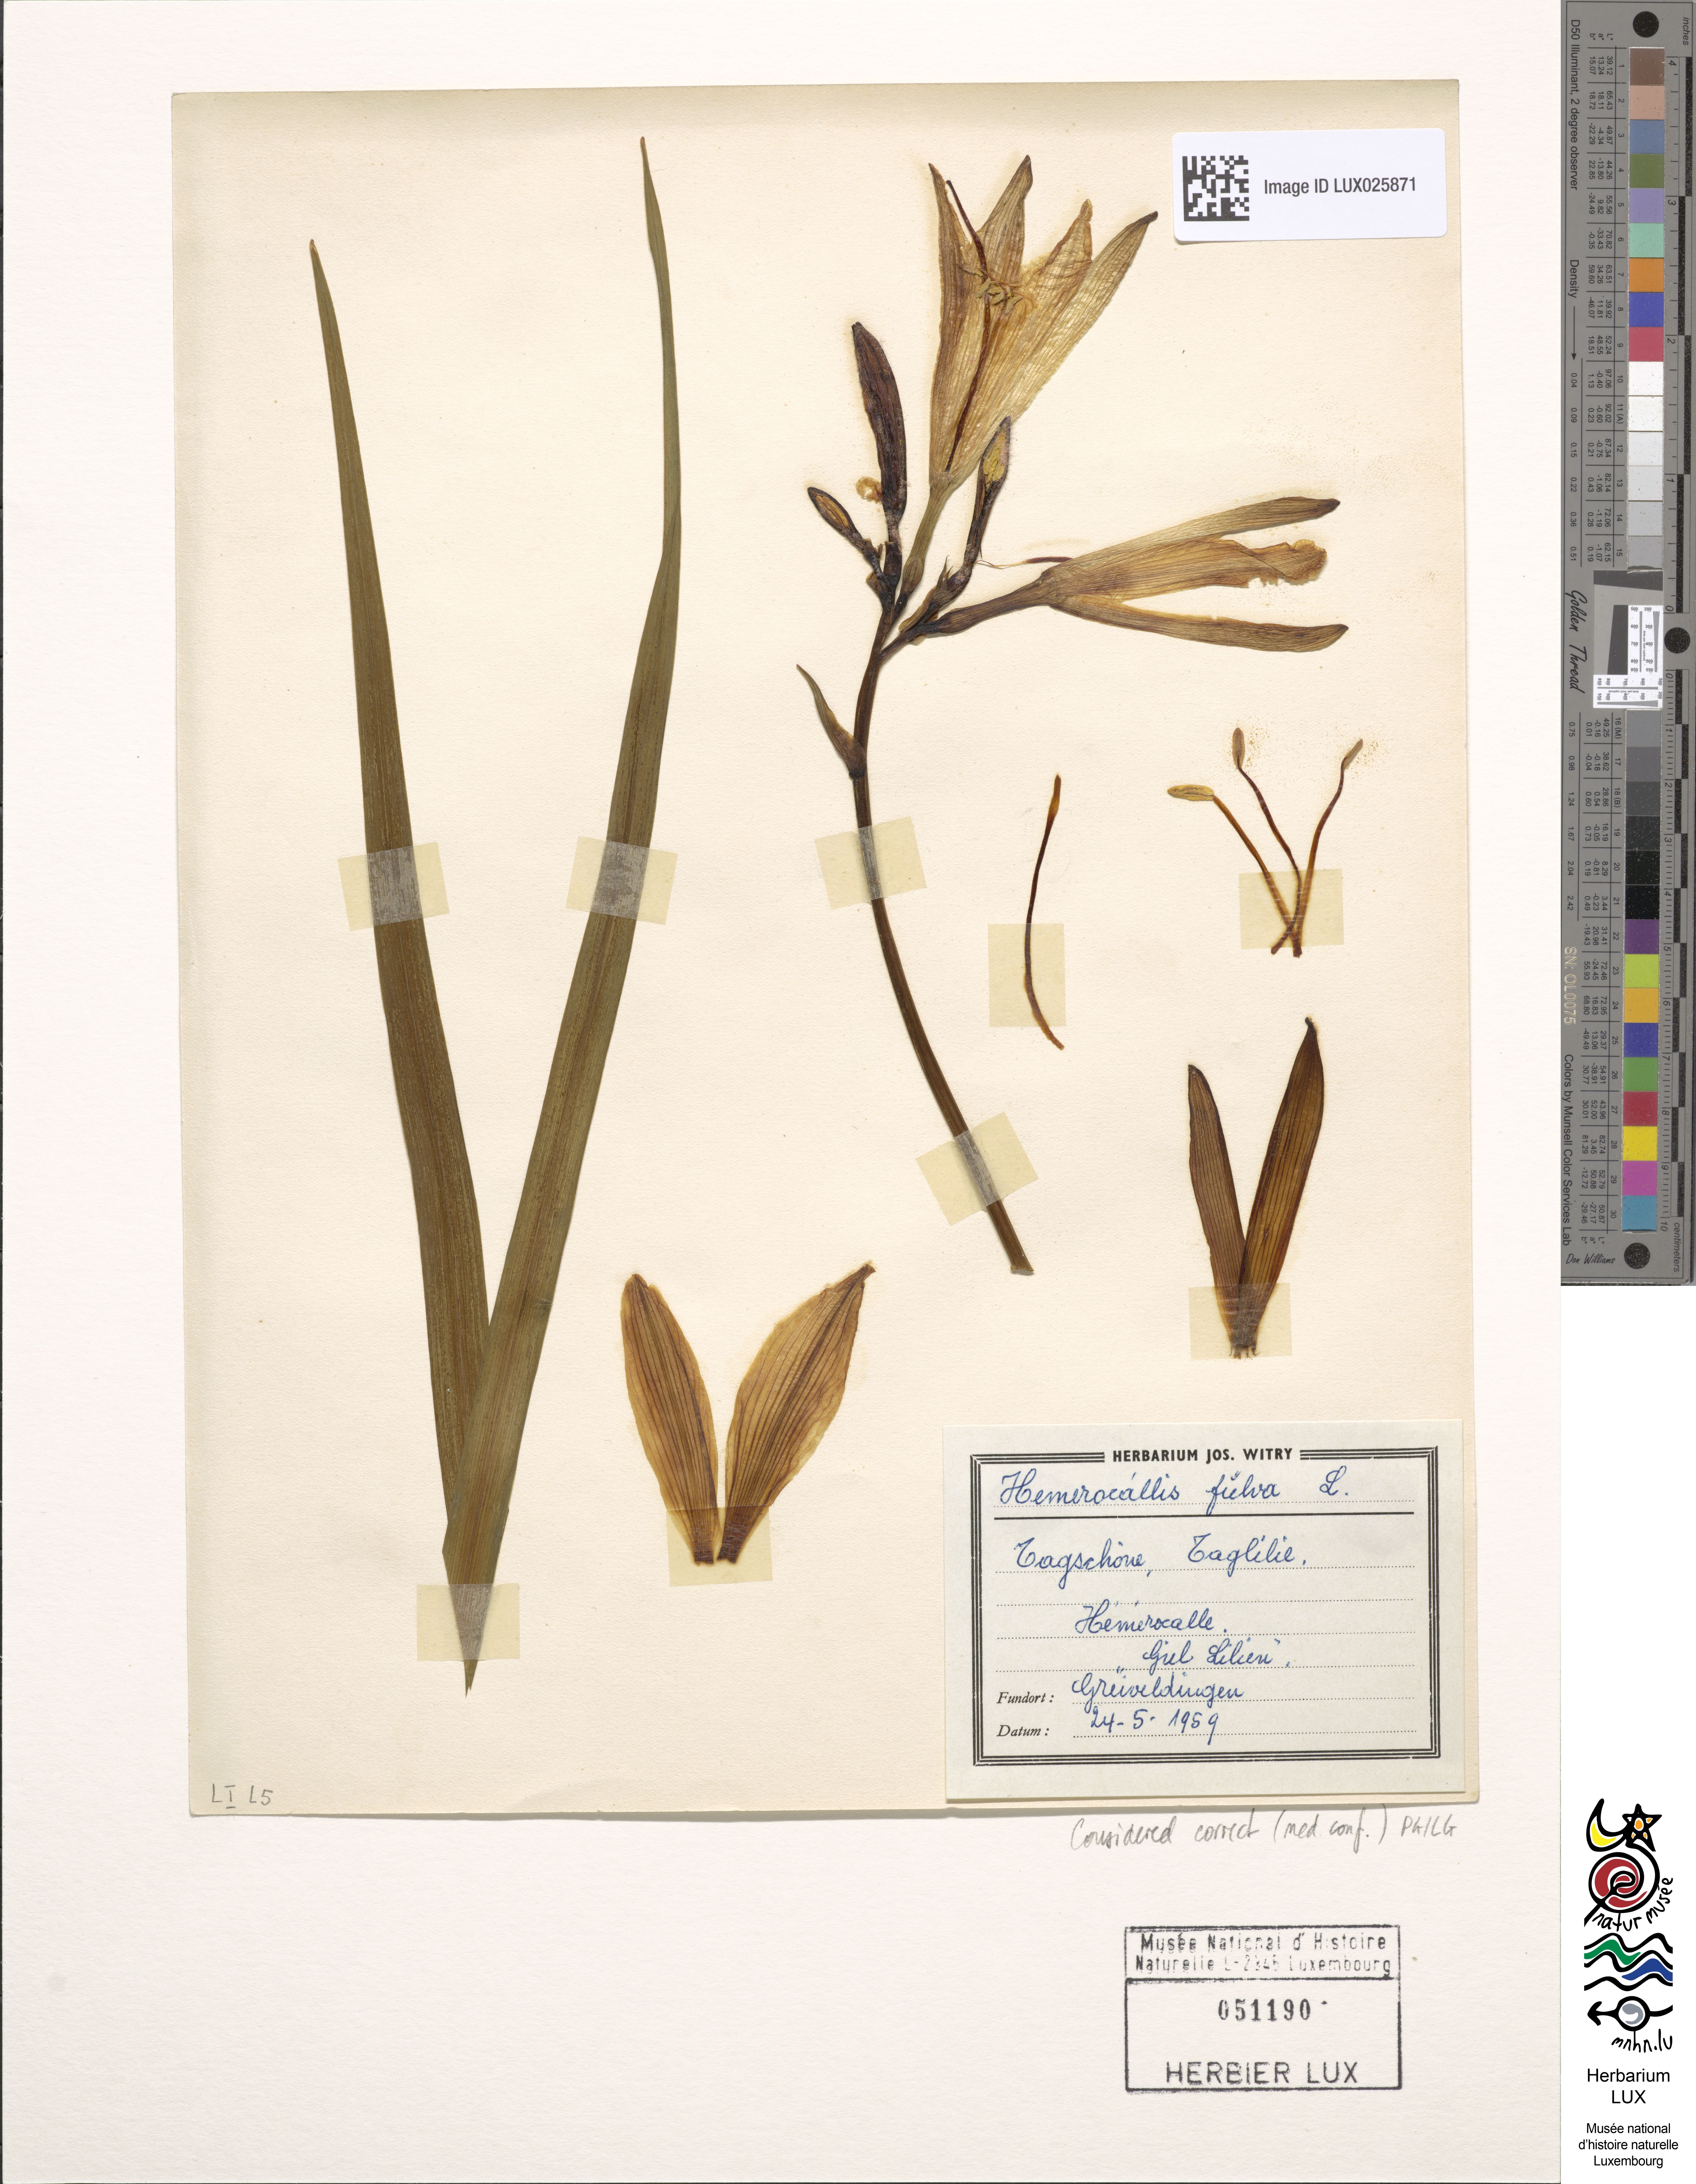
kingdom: Plantae
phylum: Tracheophyta
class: Liliopsida
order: Asparagales
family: Asphodelaceae
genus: Hemerocallis
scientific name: Hemerocallis fulva
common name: Orange day-lily
